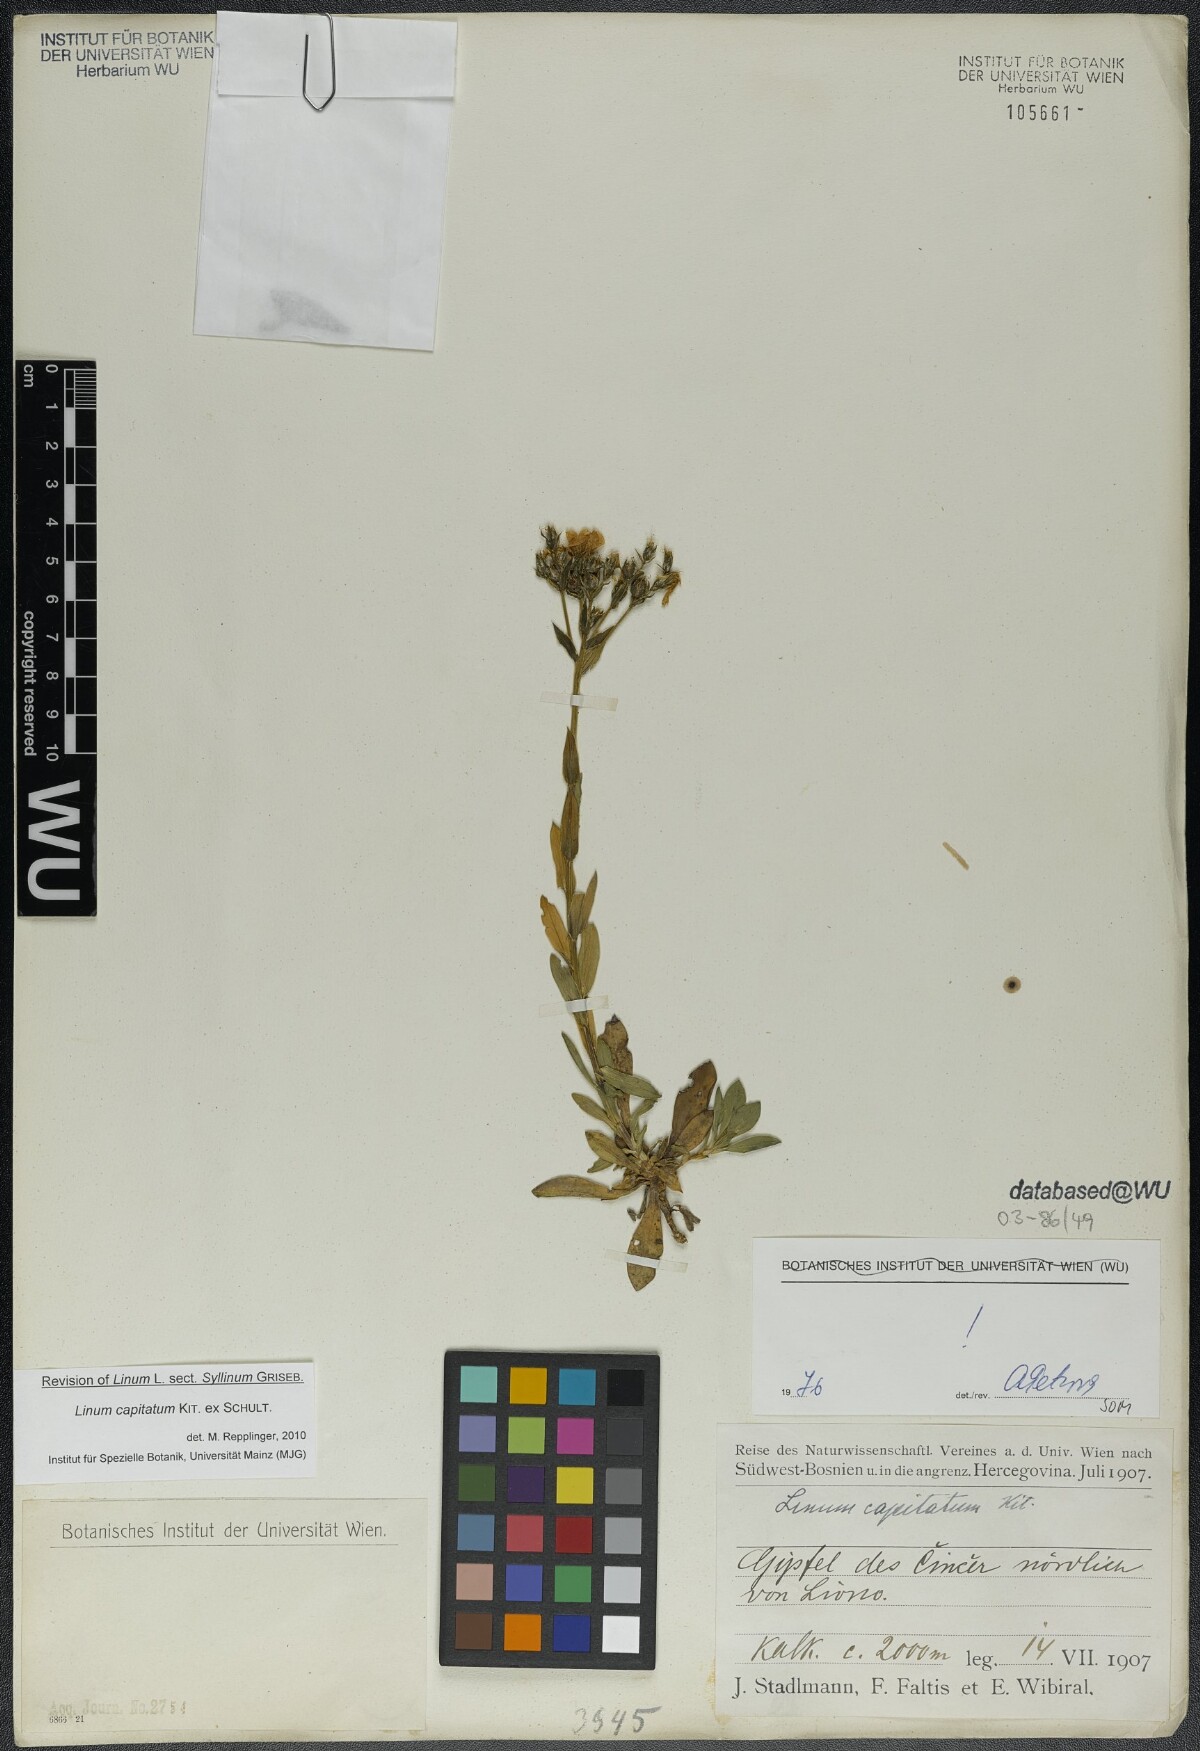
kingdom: Plantae
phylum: Tracheophyta
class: Magnoliopsida
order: Malpighiales
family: Linaceae
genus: Linum
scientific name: Linum capitatum
